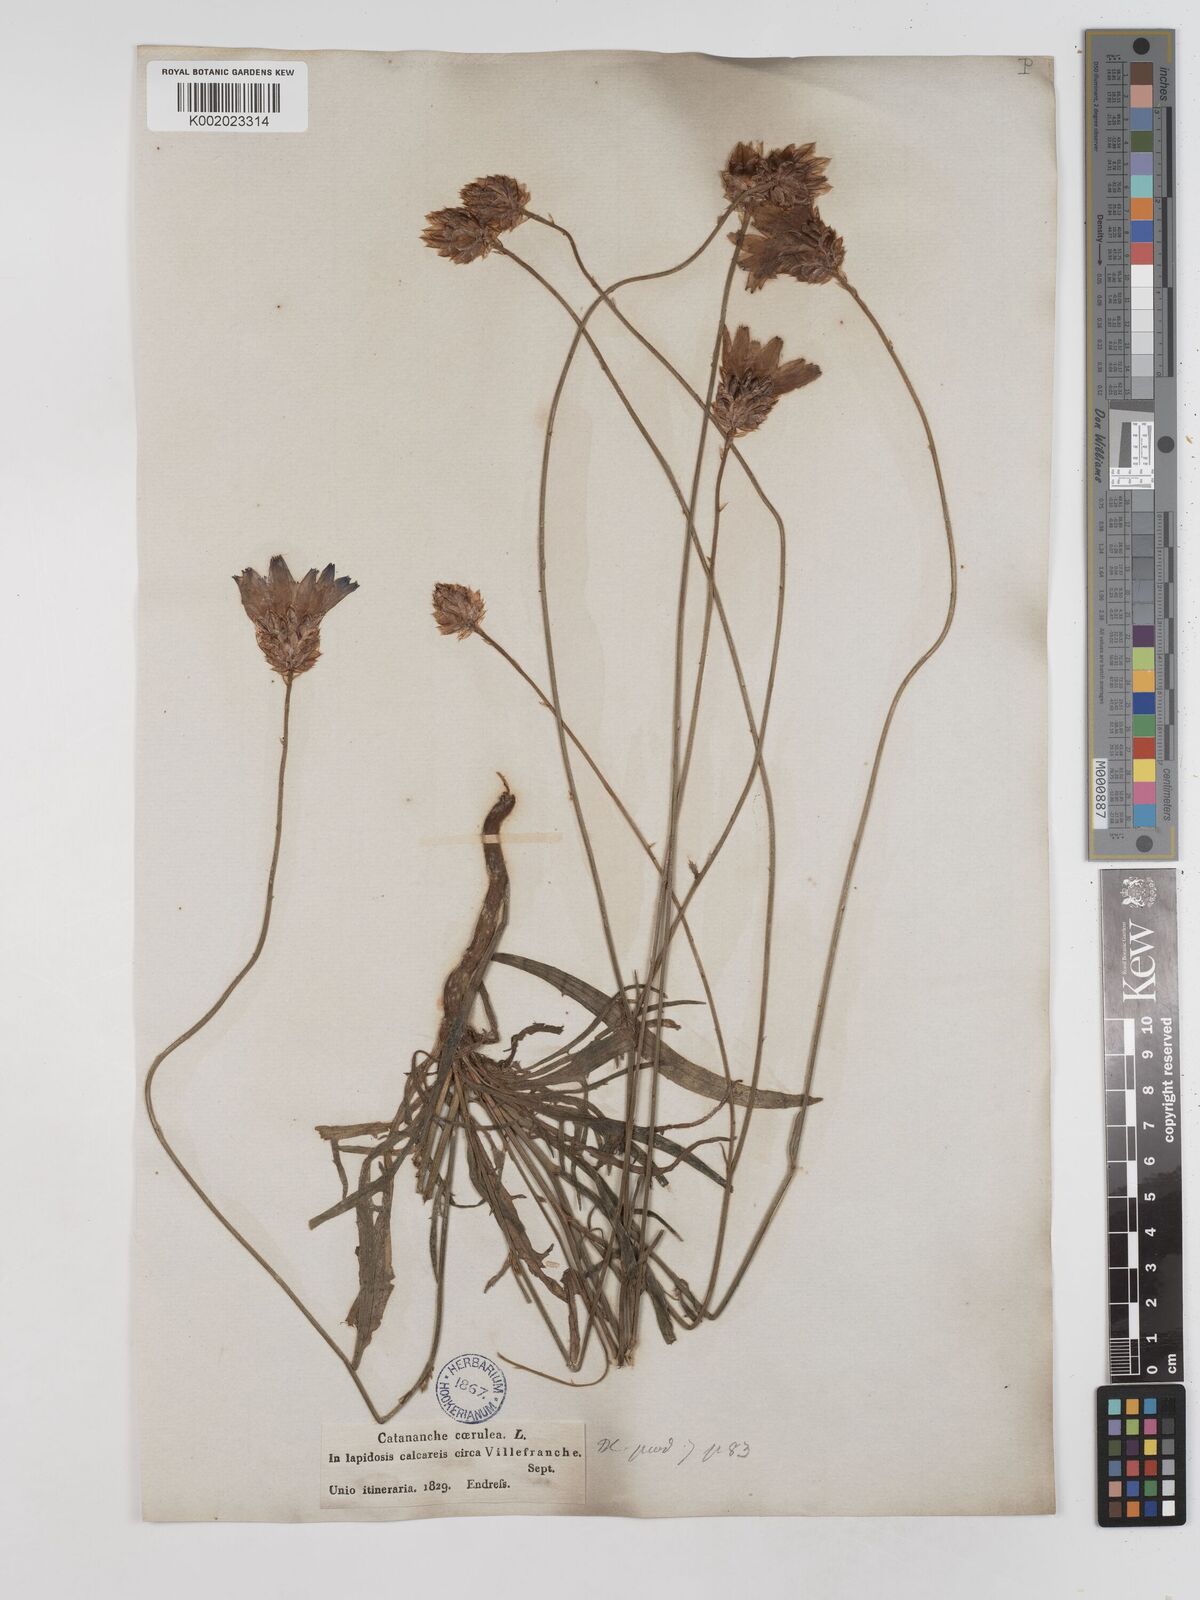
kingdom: Plantae
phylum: Tracheophyta
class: Magnoliopsida
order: Asterales
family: Asteraceae
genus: Catananche
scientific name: Catananche caerulea
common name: Blue cupidone
